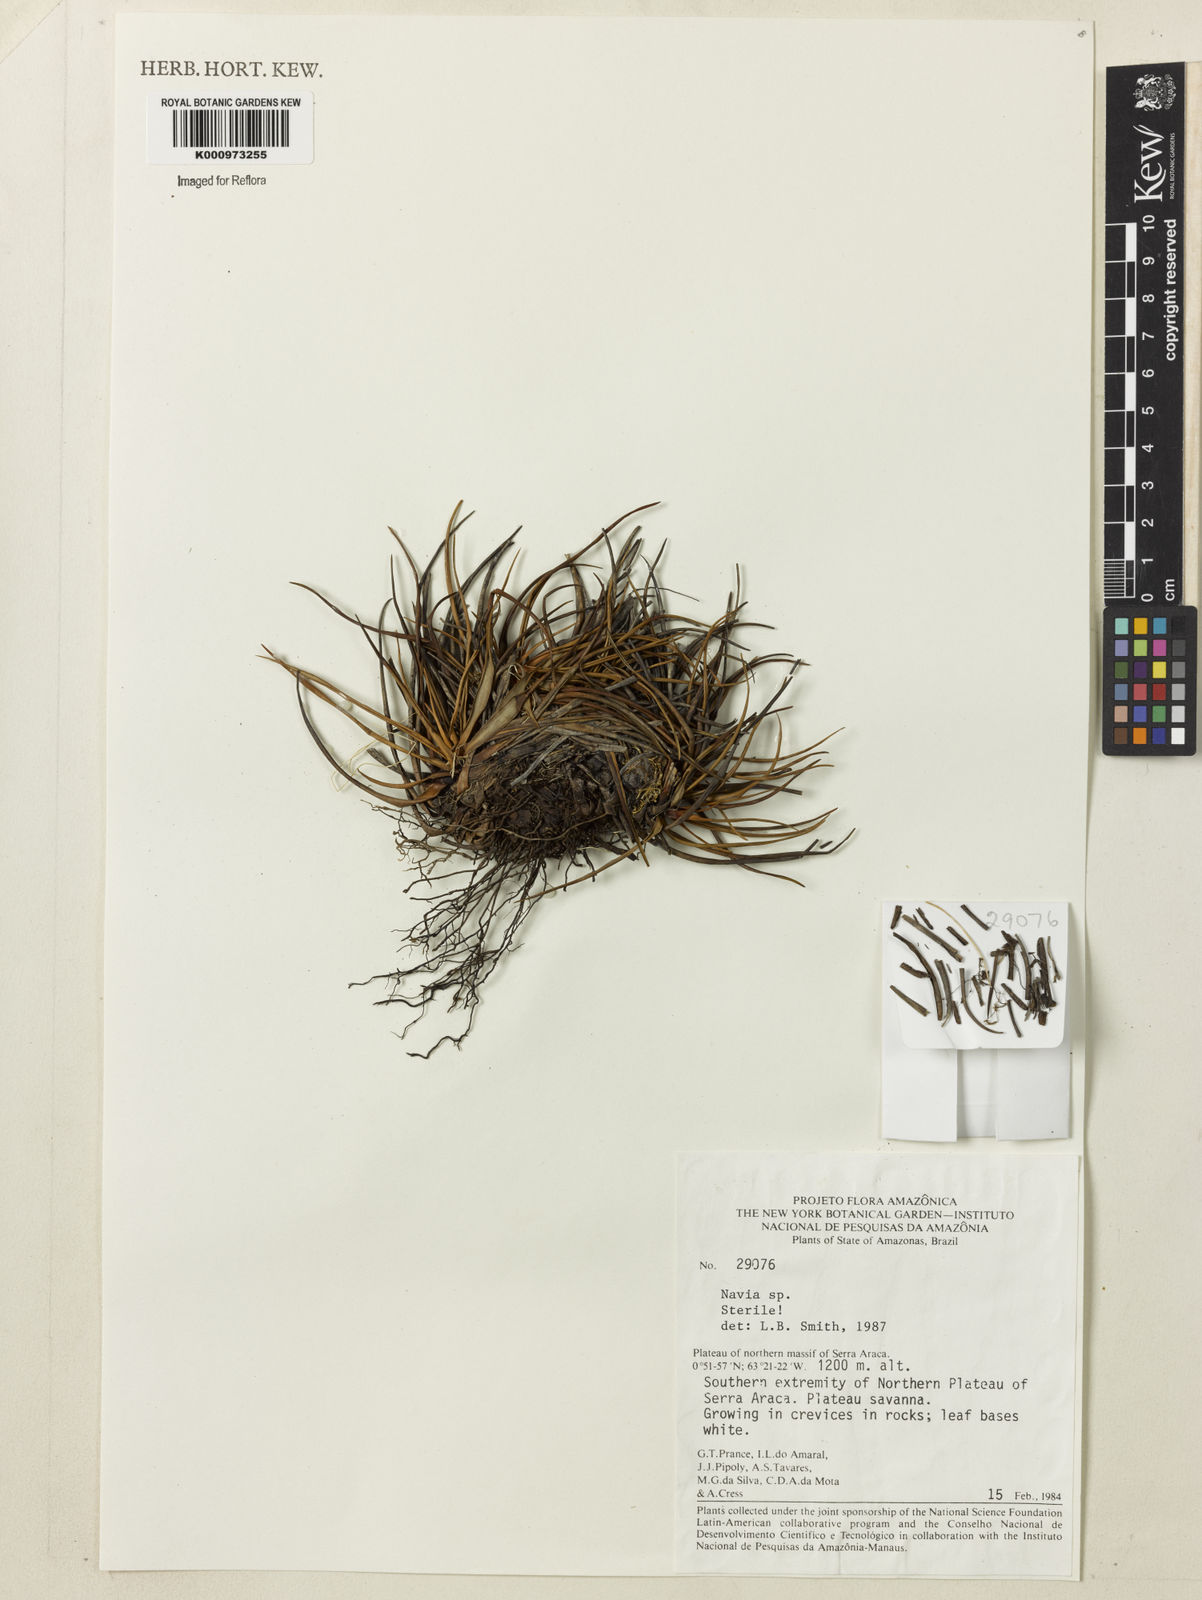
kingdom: Plantae
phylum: Tracheophyta
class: Liliopsida
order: Poales
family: Bromeliaceae
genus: Navia
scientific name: Navia
